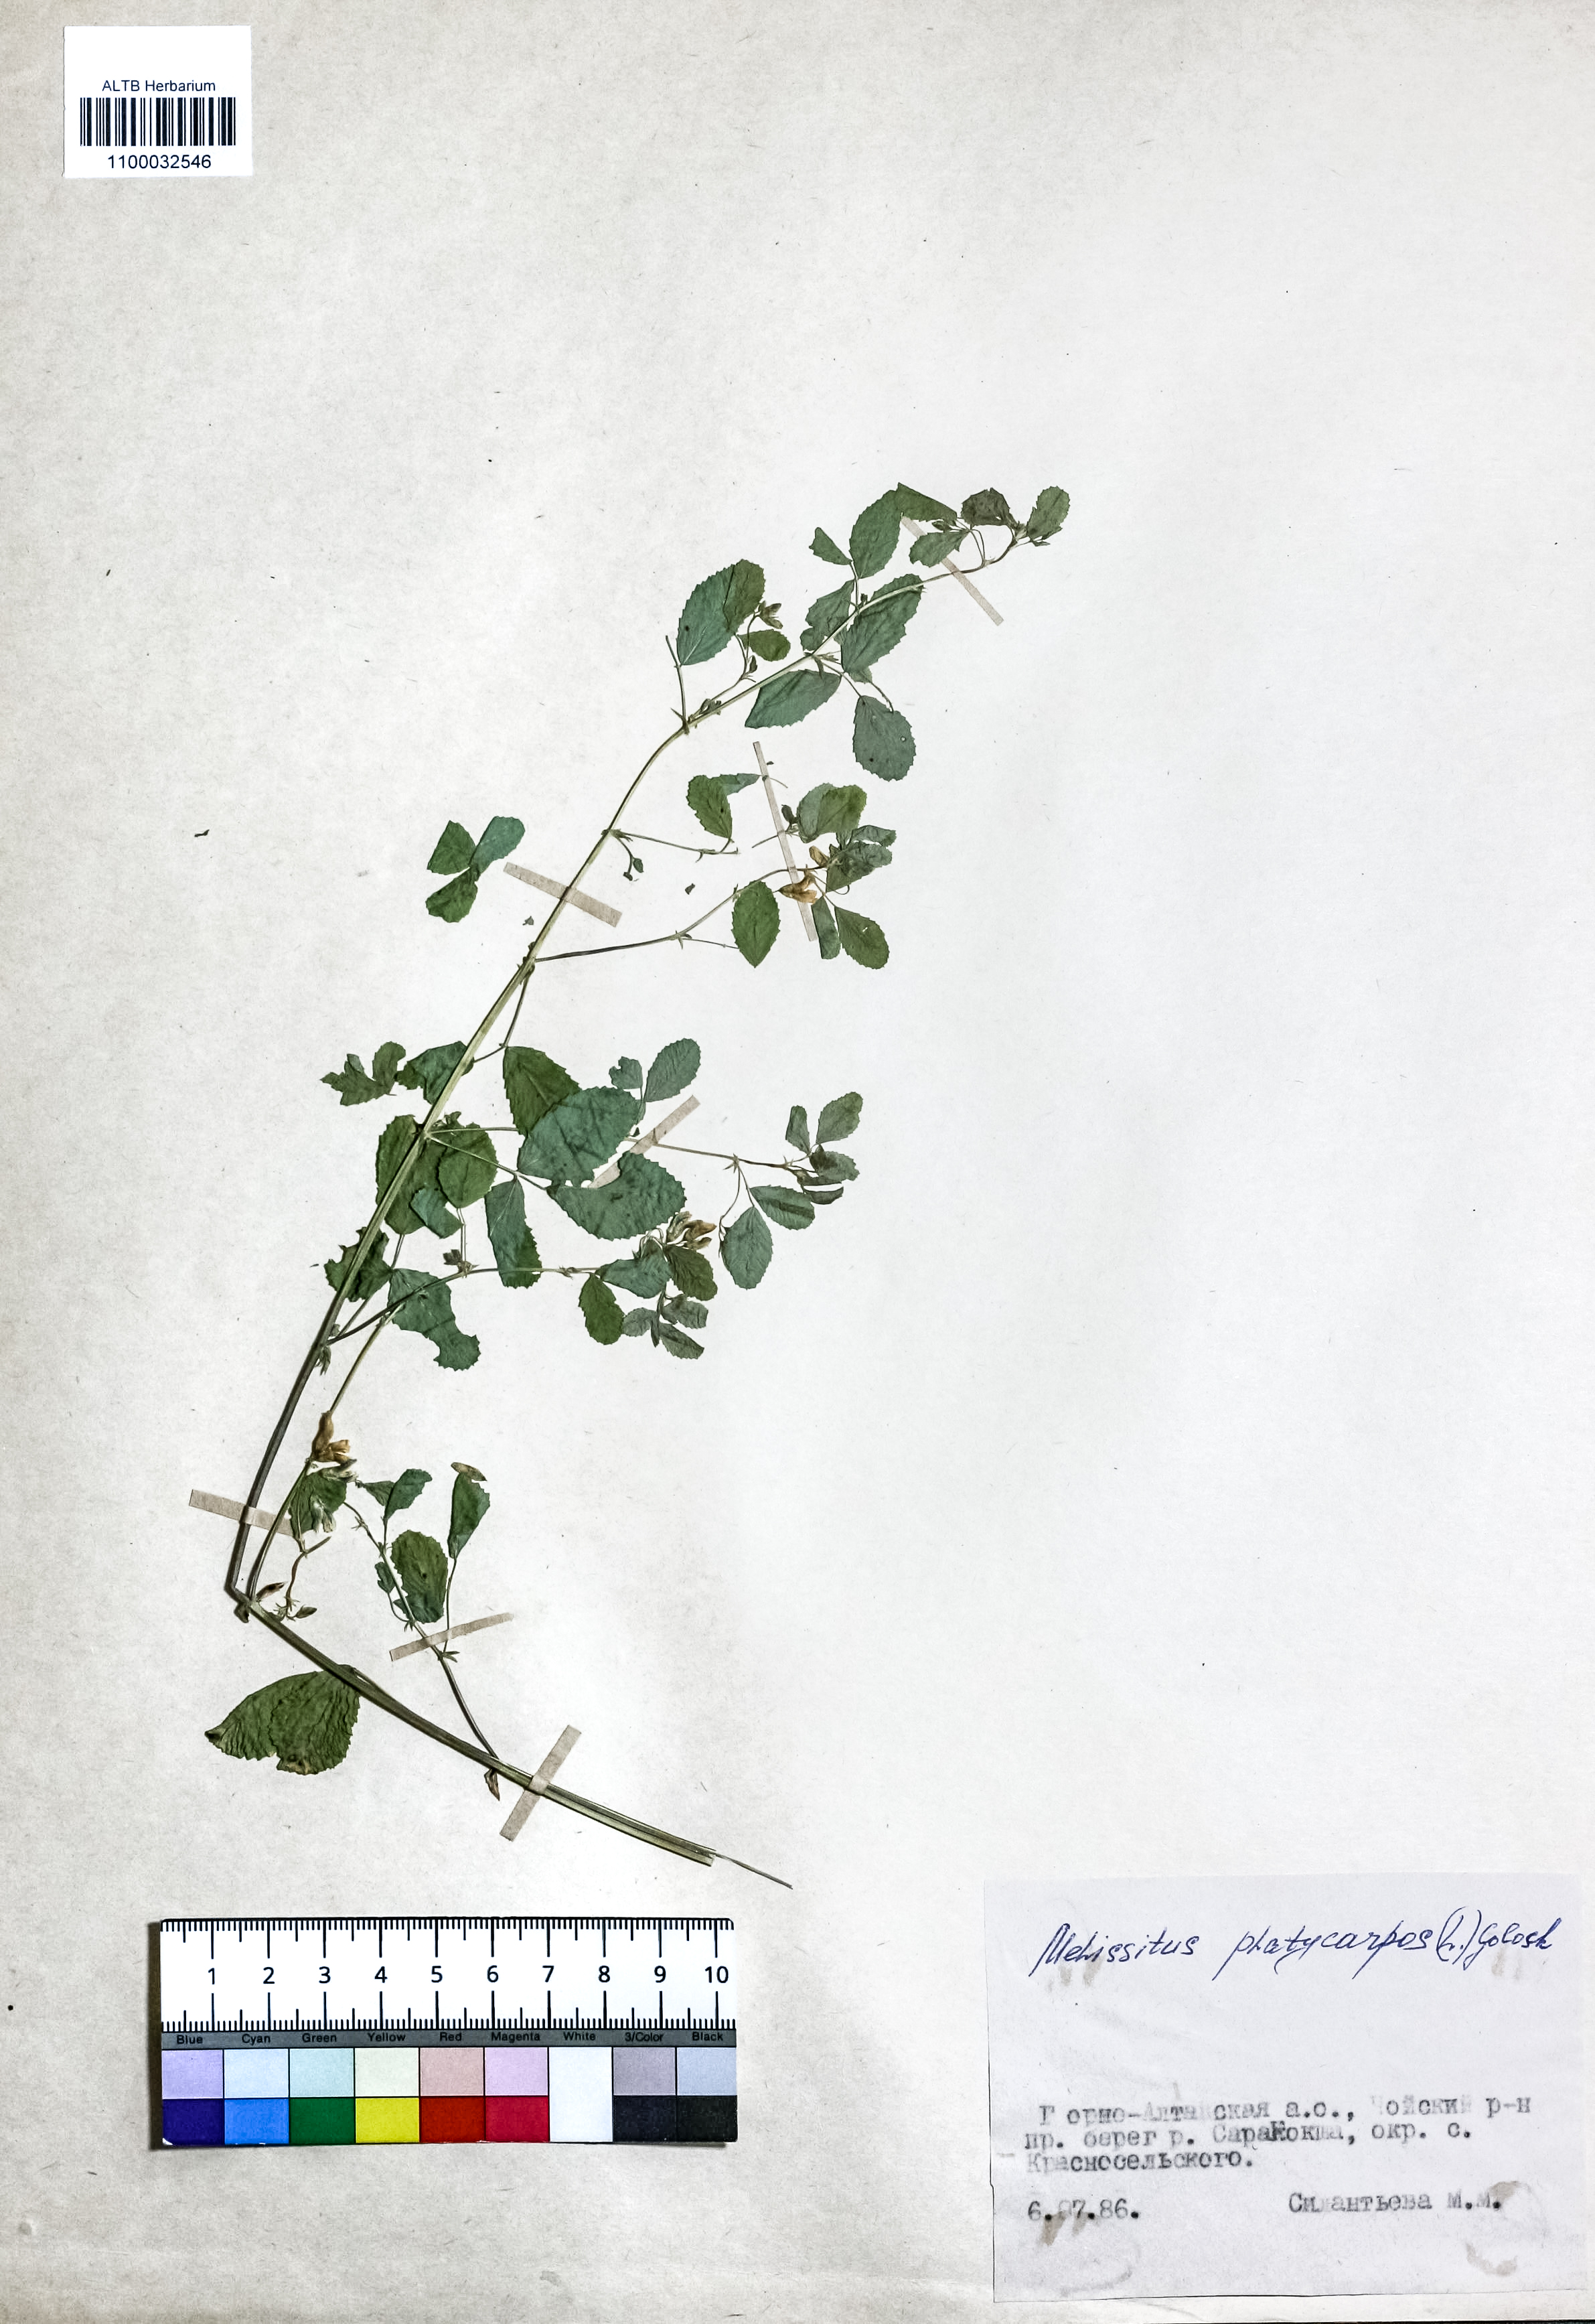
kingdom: Plantae
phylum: Tracheophyta
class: Magnoliopsida
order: Fabales
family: Fabaceae
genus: Medicago
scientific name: Medicago platycarpos
